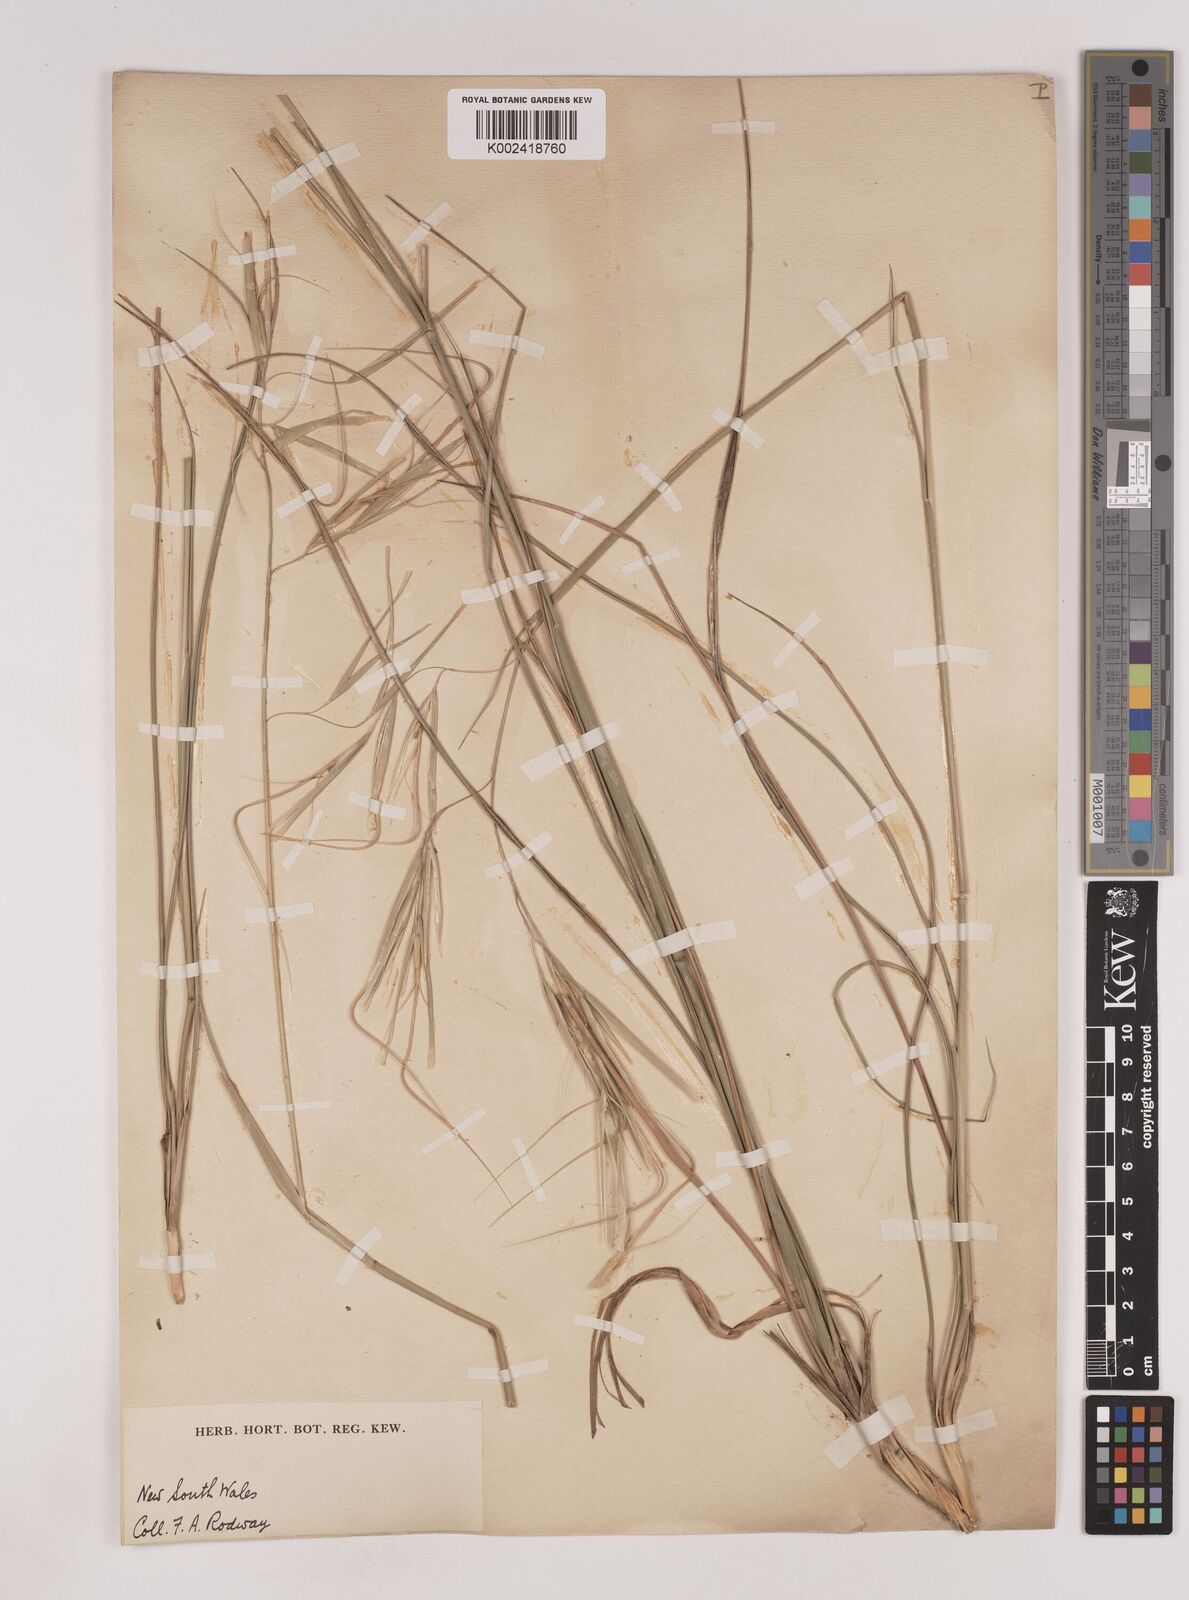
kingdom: Plantae
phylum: Tracheophyta
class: Liliopsida
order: Poales
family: Poaceae
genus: Anisopogon
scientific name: Anisopogon avenaceus
